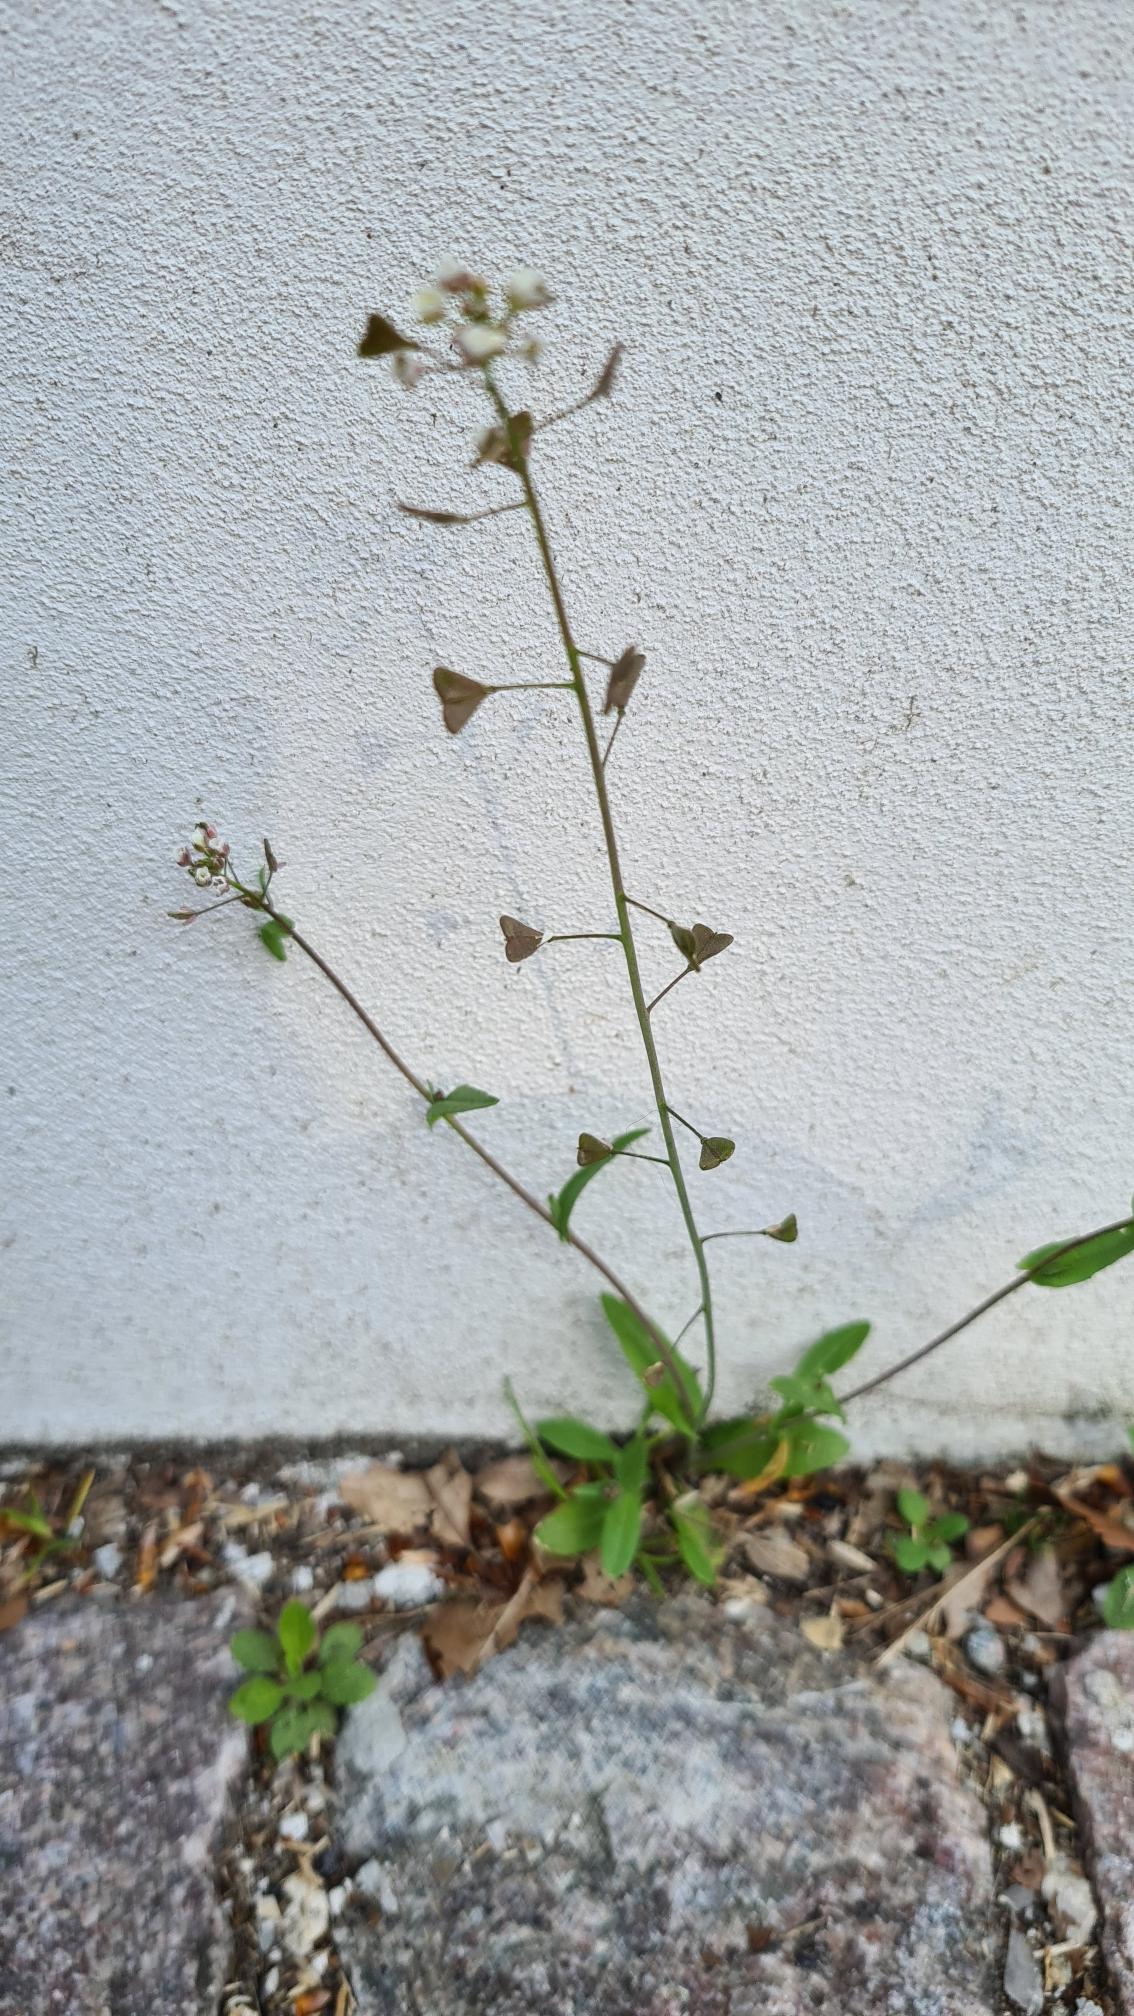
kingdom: Plantae
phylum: Tracheophyta
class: Magnoliopsida
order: Brassicales
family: Brassicaceae
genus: Capsella
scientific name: Capsella bursa-pastoris
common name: Hyrdetaske
